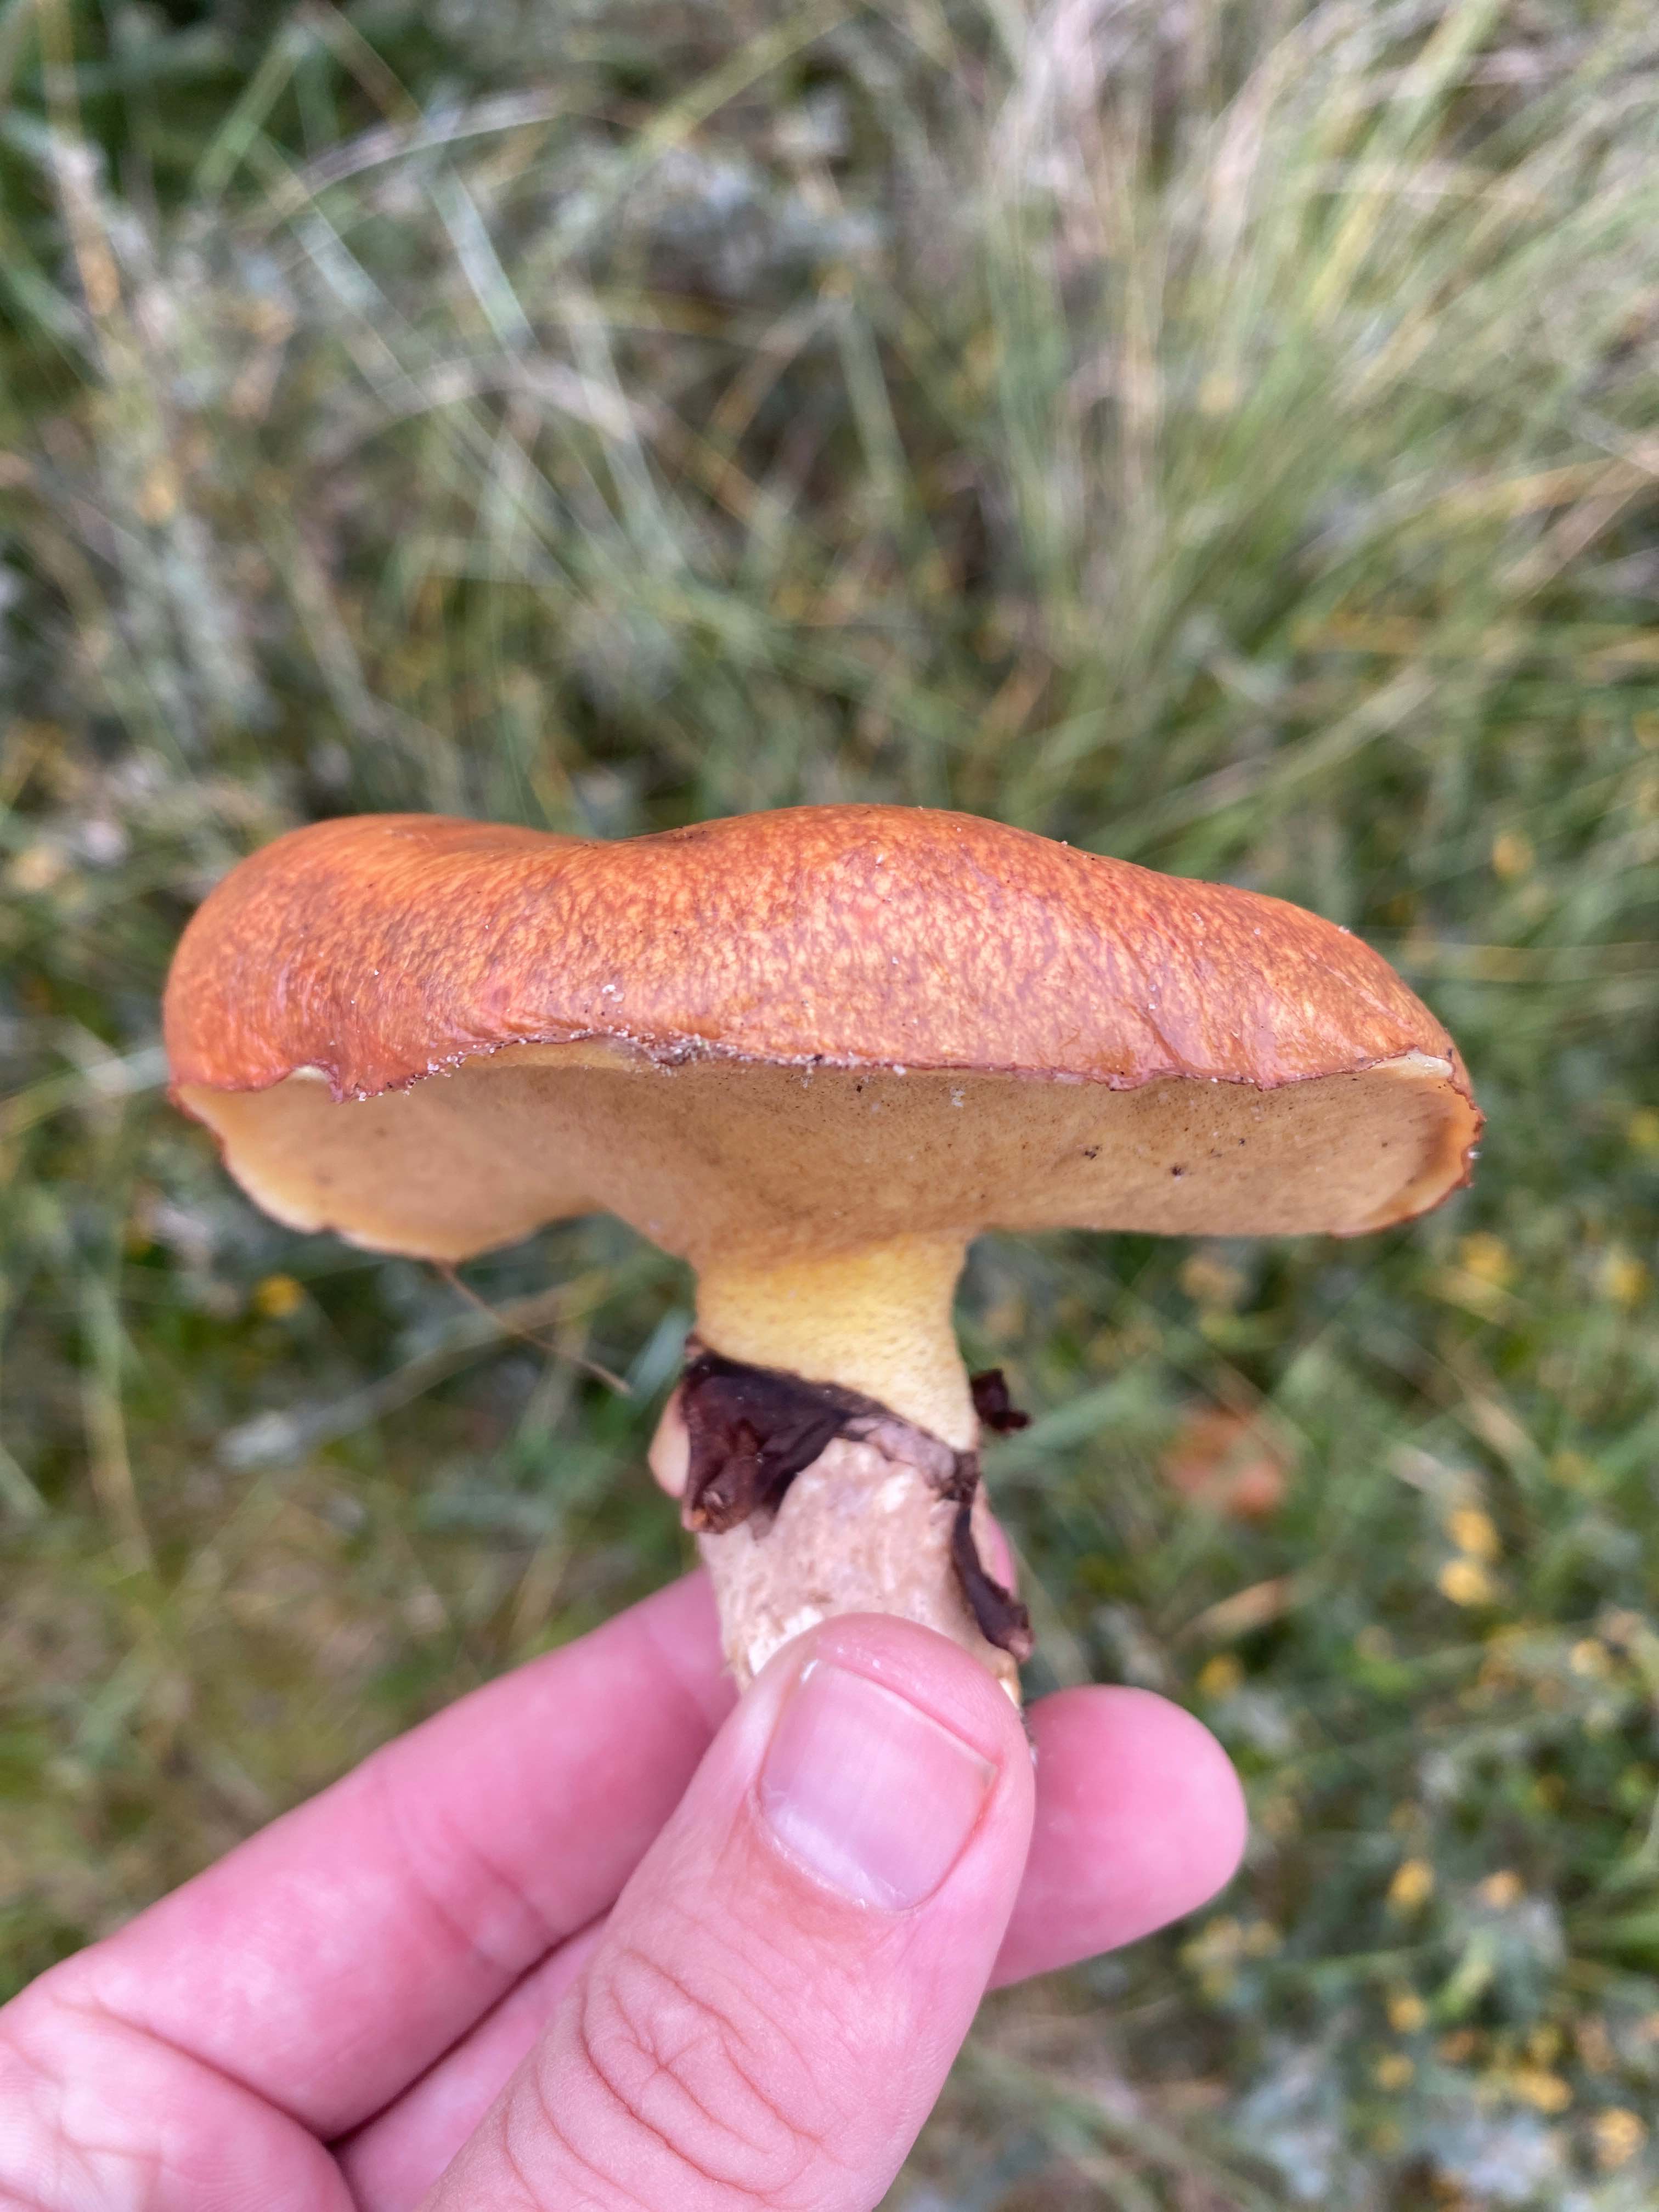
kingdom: Fungi
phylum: Basidiomycota
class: Agaricomycetes
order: Boletales
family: Suillaceae
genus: Suillus
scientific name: Suillus luteus
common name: brungul slimrørhat
